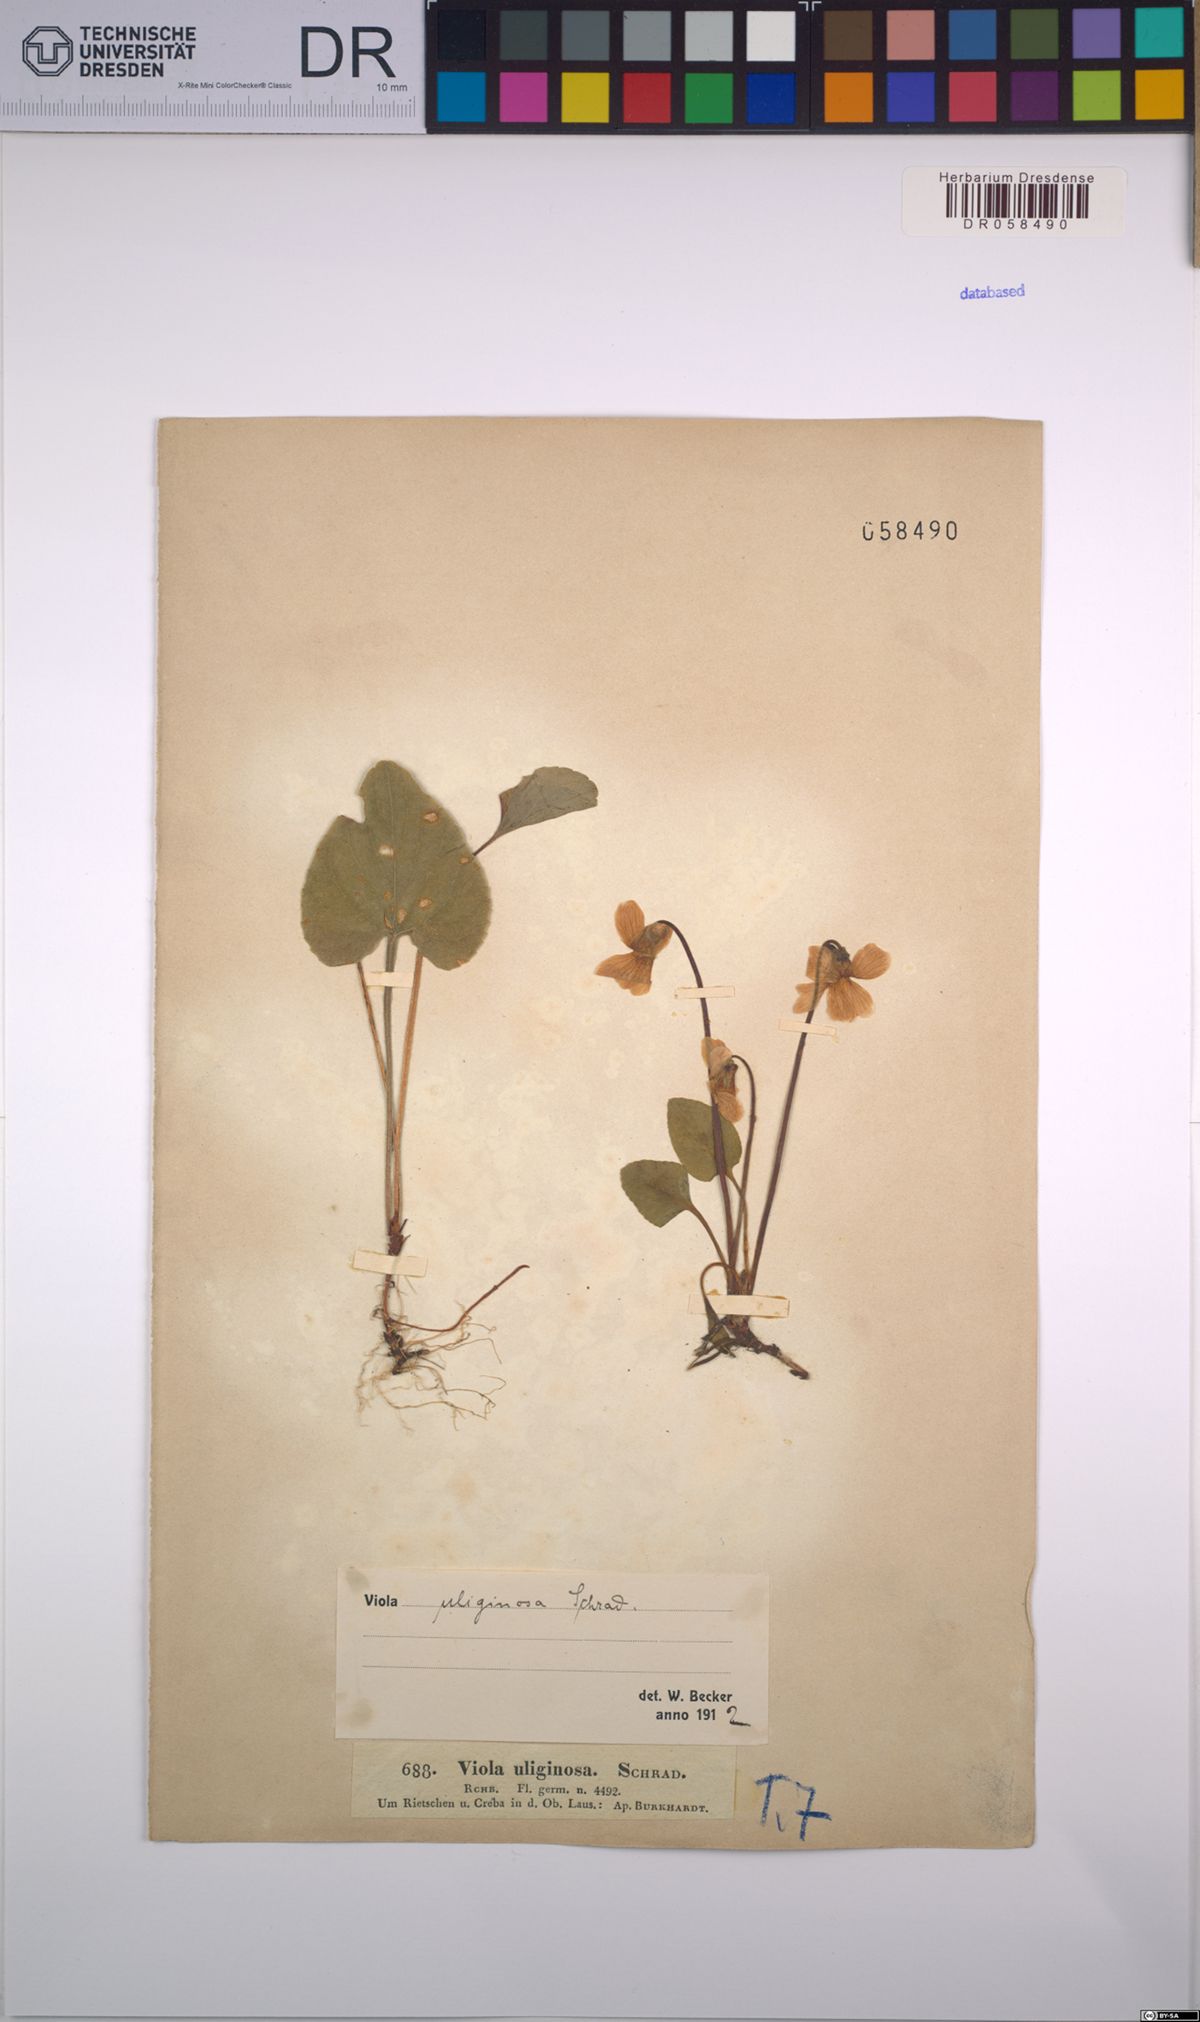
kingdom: Plantae
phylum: Tracheophyta
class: Magnoliopsida
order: Malpighiales
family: Violaceae
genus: Viola
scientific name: Viola uliginosa
